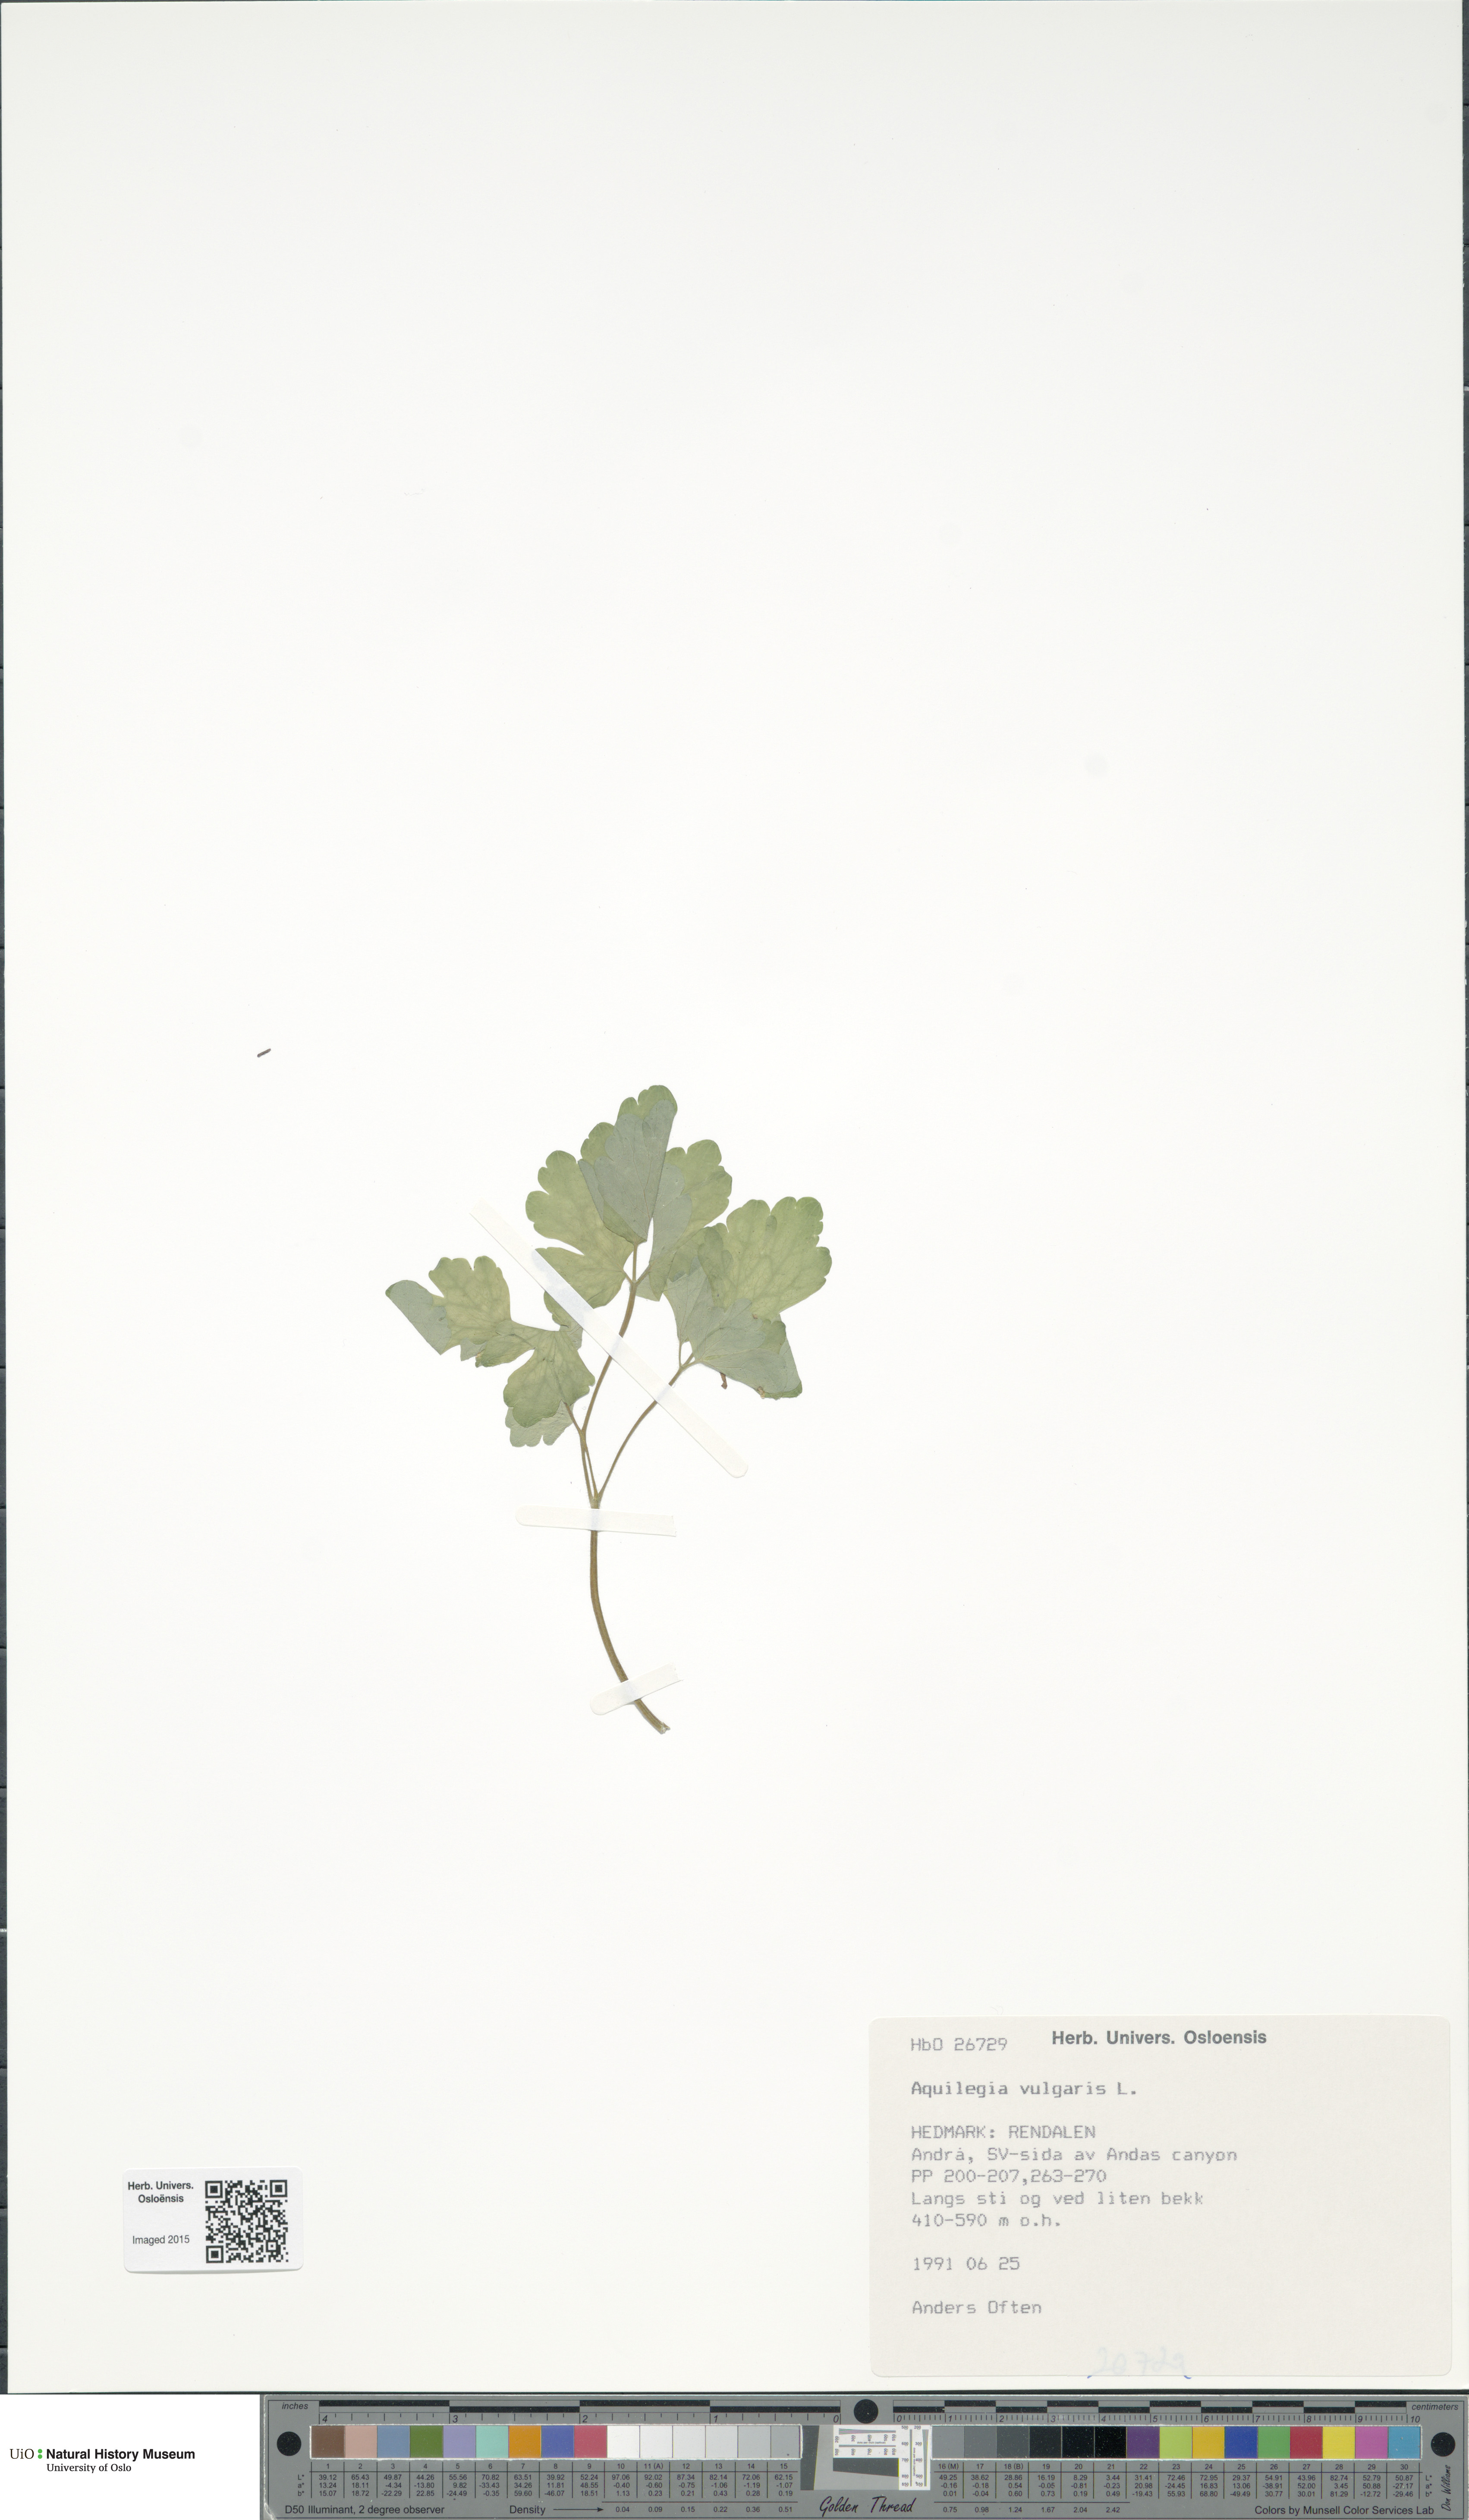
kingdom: Plantae
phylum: Tracheophyta
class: Magnoliopsida
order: Ranunculales
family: Ranunculaceae
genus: Aquilegia
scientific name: Aquilegia vulgaris
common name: Columbine
